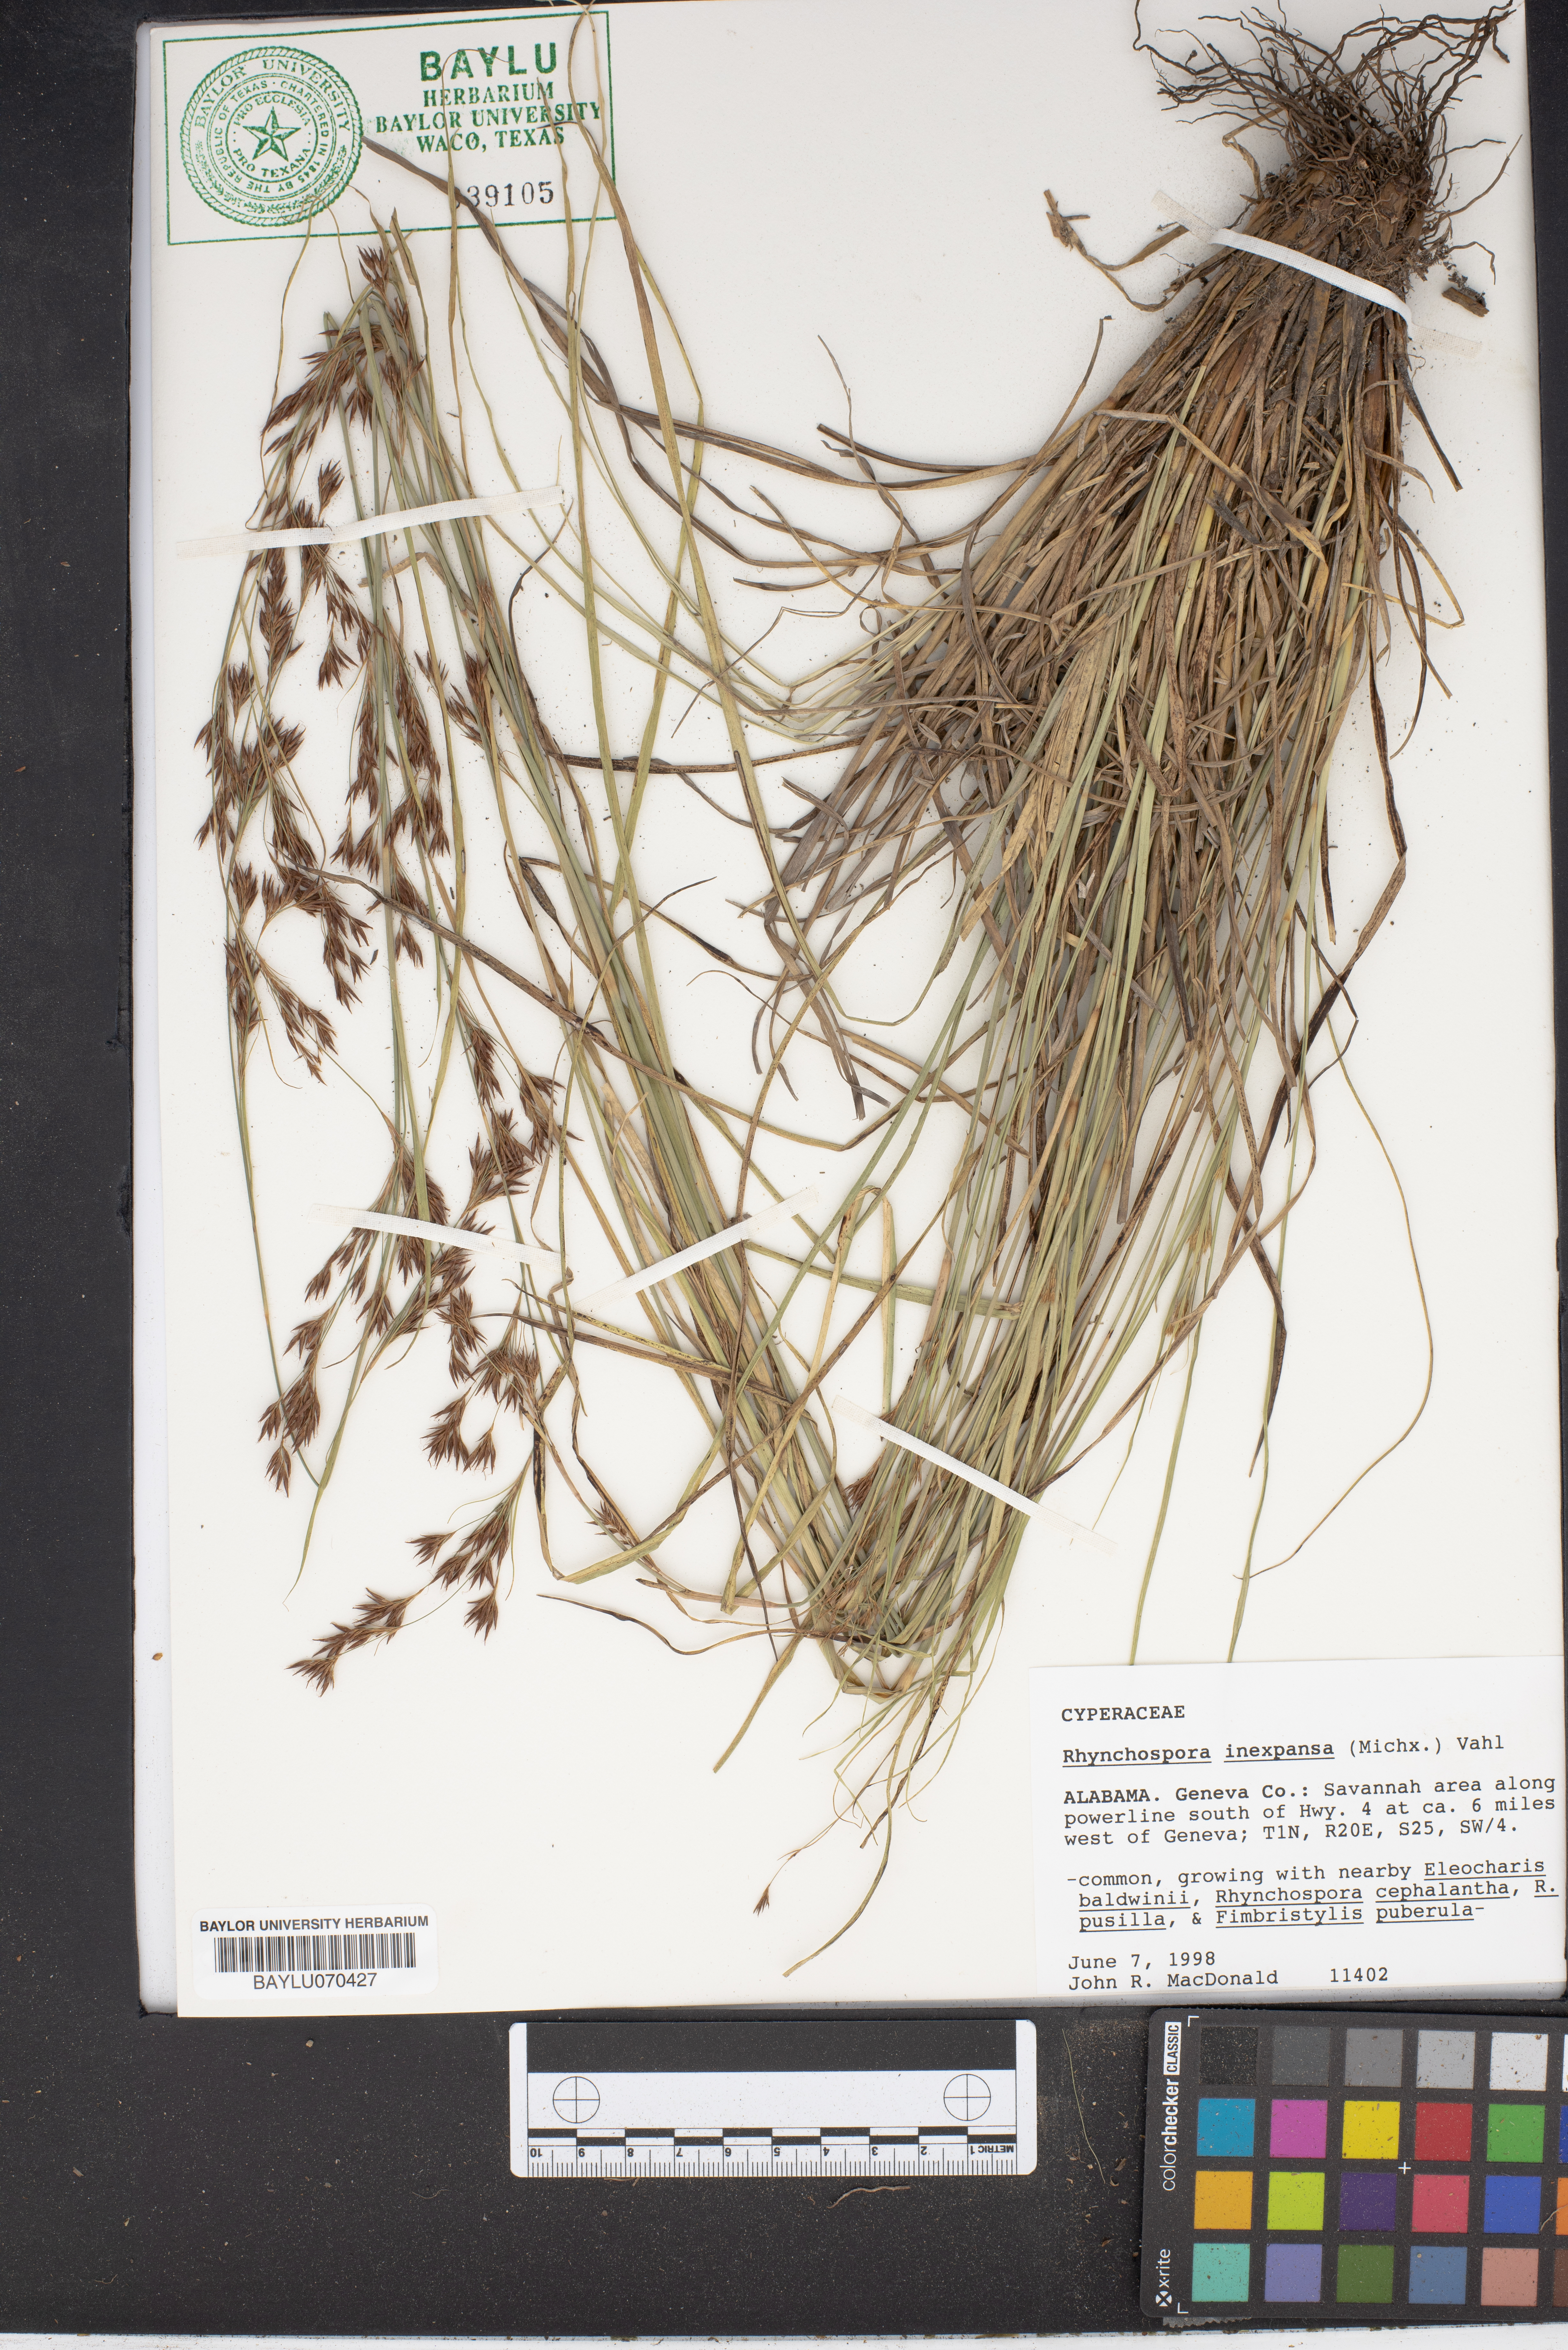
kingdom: Plantae
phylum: Tracheophyta
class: Liliopsida
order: Poales
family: Cyperaceae
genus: Rhynchospora
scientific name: Rhynchospora inexpansa
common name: Nodding beaksedge
